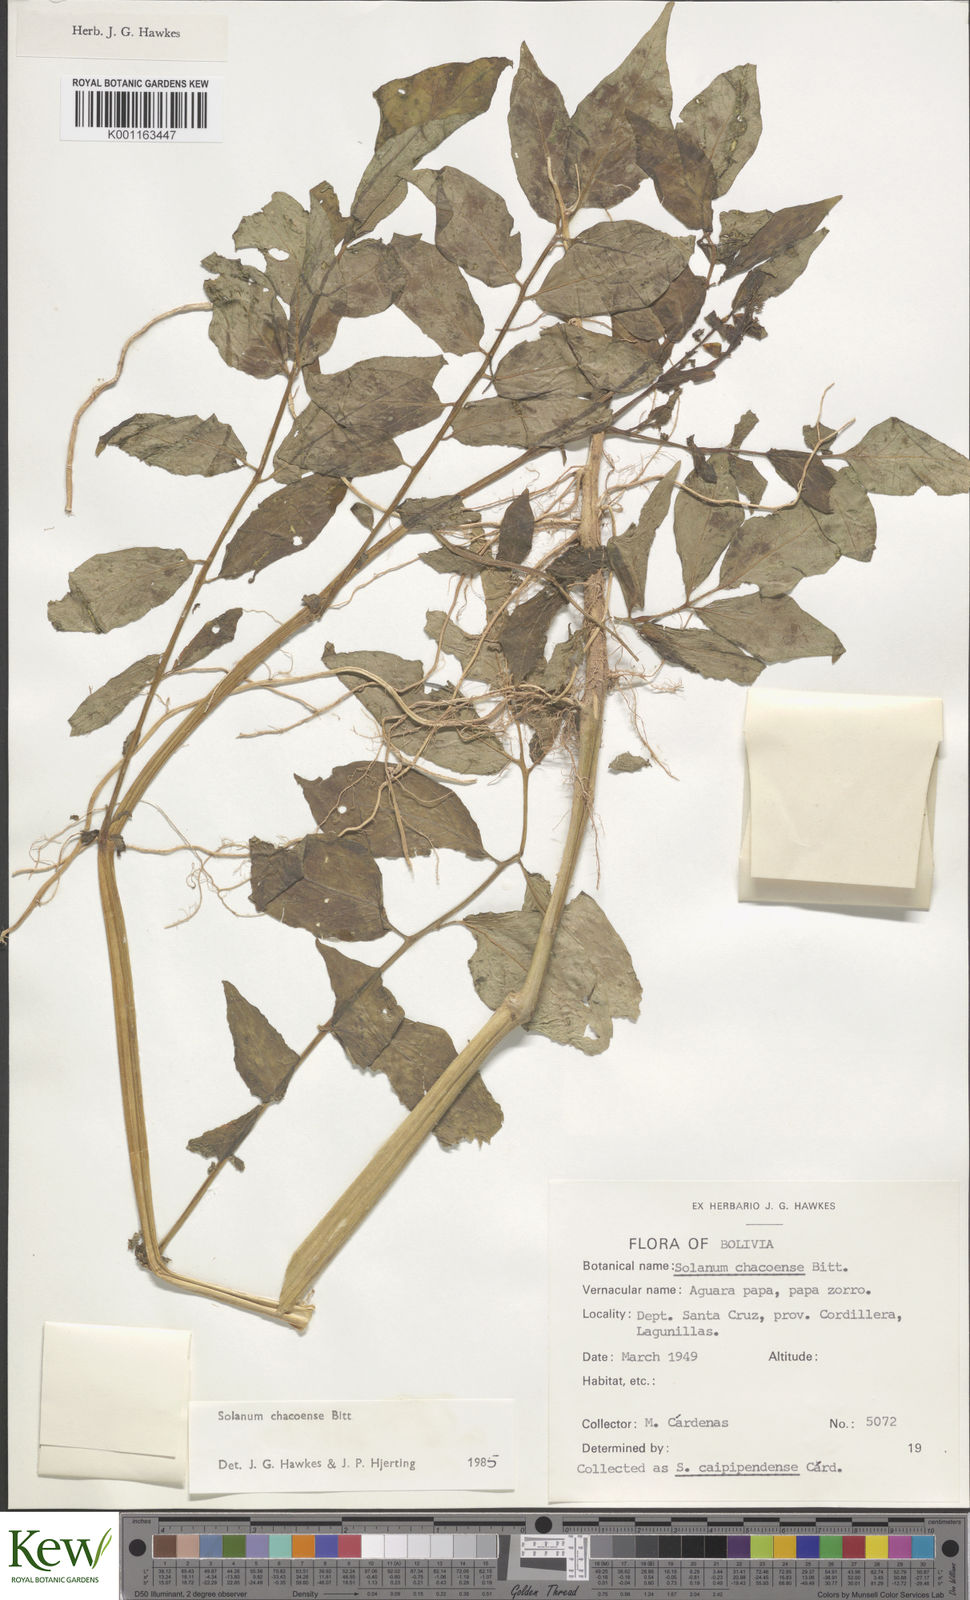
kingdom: Plantae
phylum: Tracheophyta
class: Magnoliopsida
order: Solanales
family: Solanaceae
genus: Solanum
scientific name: Solanum chacoense
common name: Chaco potato
